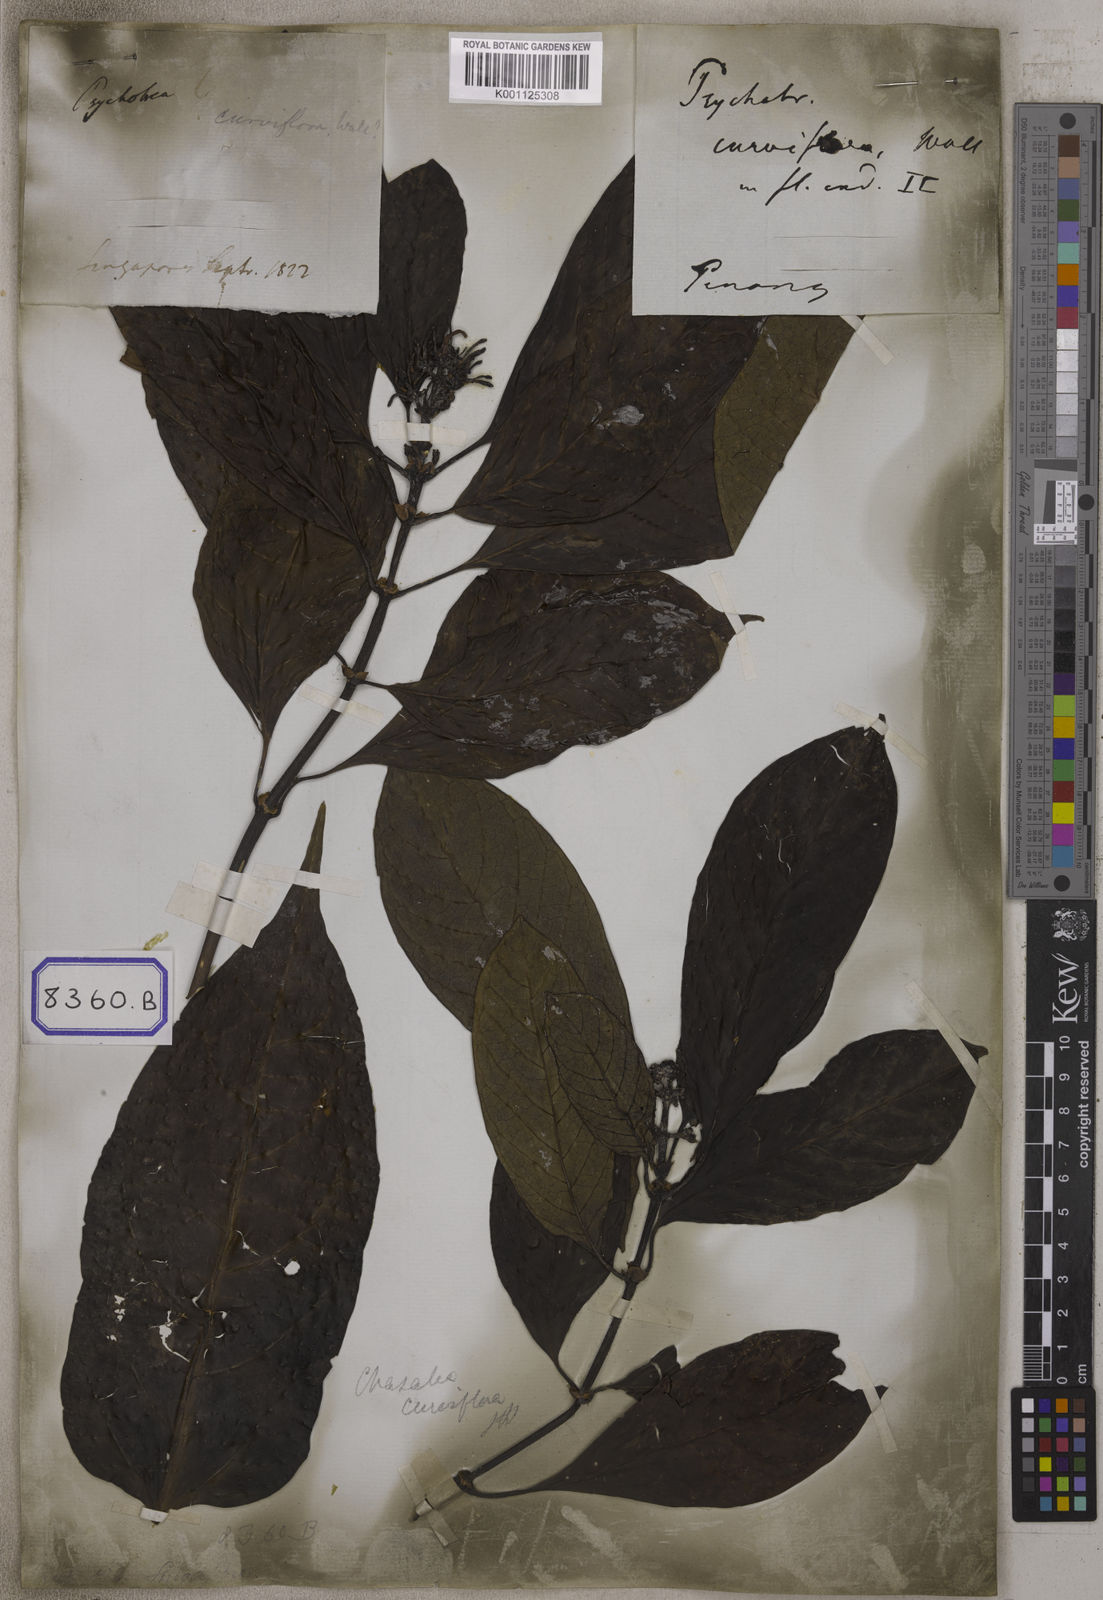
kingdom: Plantae
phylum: Tracheophyta
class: Magnoliopsida
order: Gentianales
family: Rubiaceae
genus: Chassalia
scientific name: Chassalia curviflora
